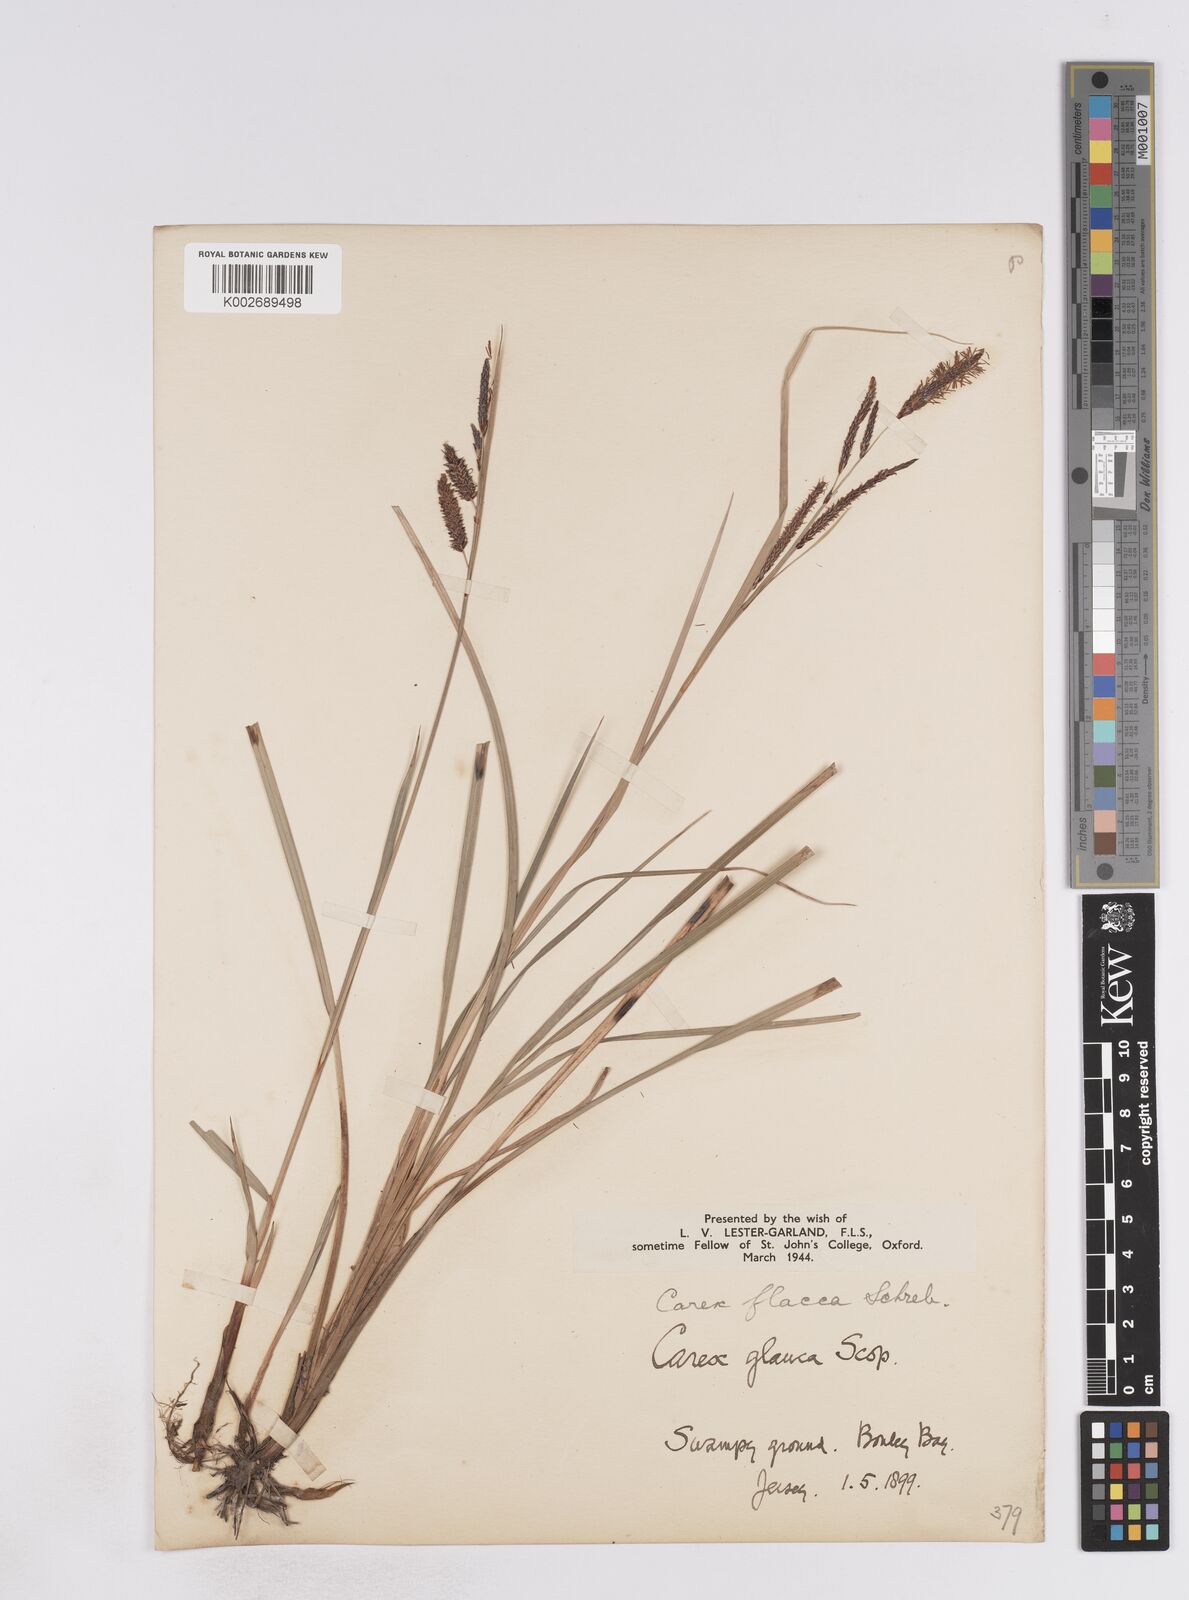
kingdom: Plantae
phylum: Tracheophyta
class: Liliopsida
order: Poales
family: Cyperaceae
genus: Carex
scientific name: Carex flacca
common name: Glaucous sedge
